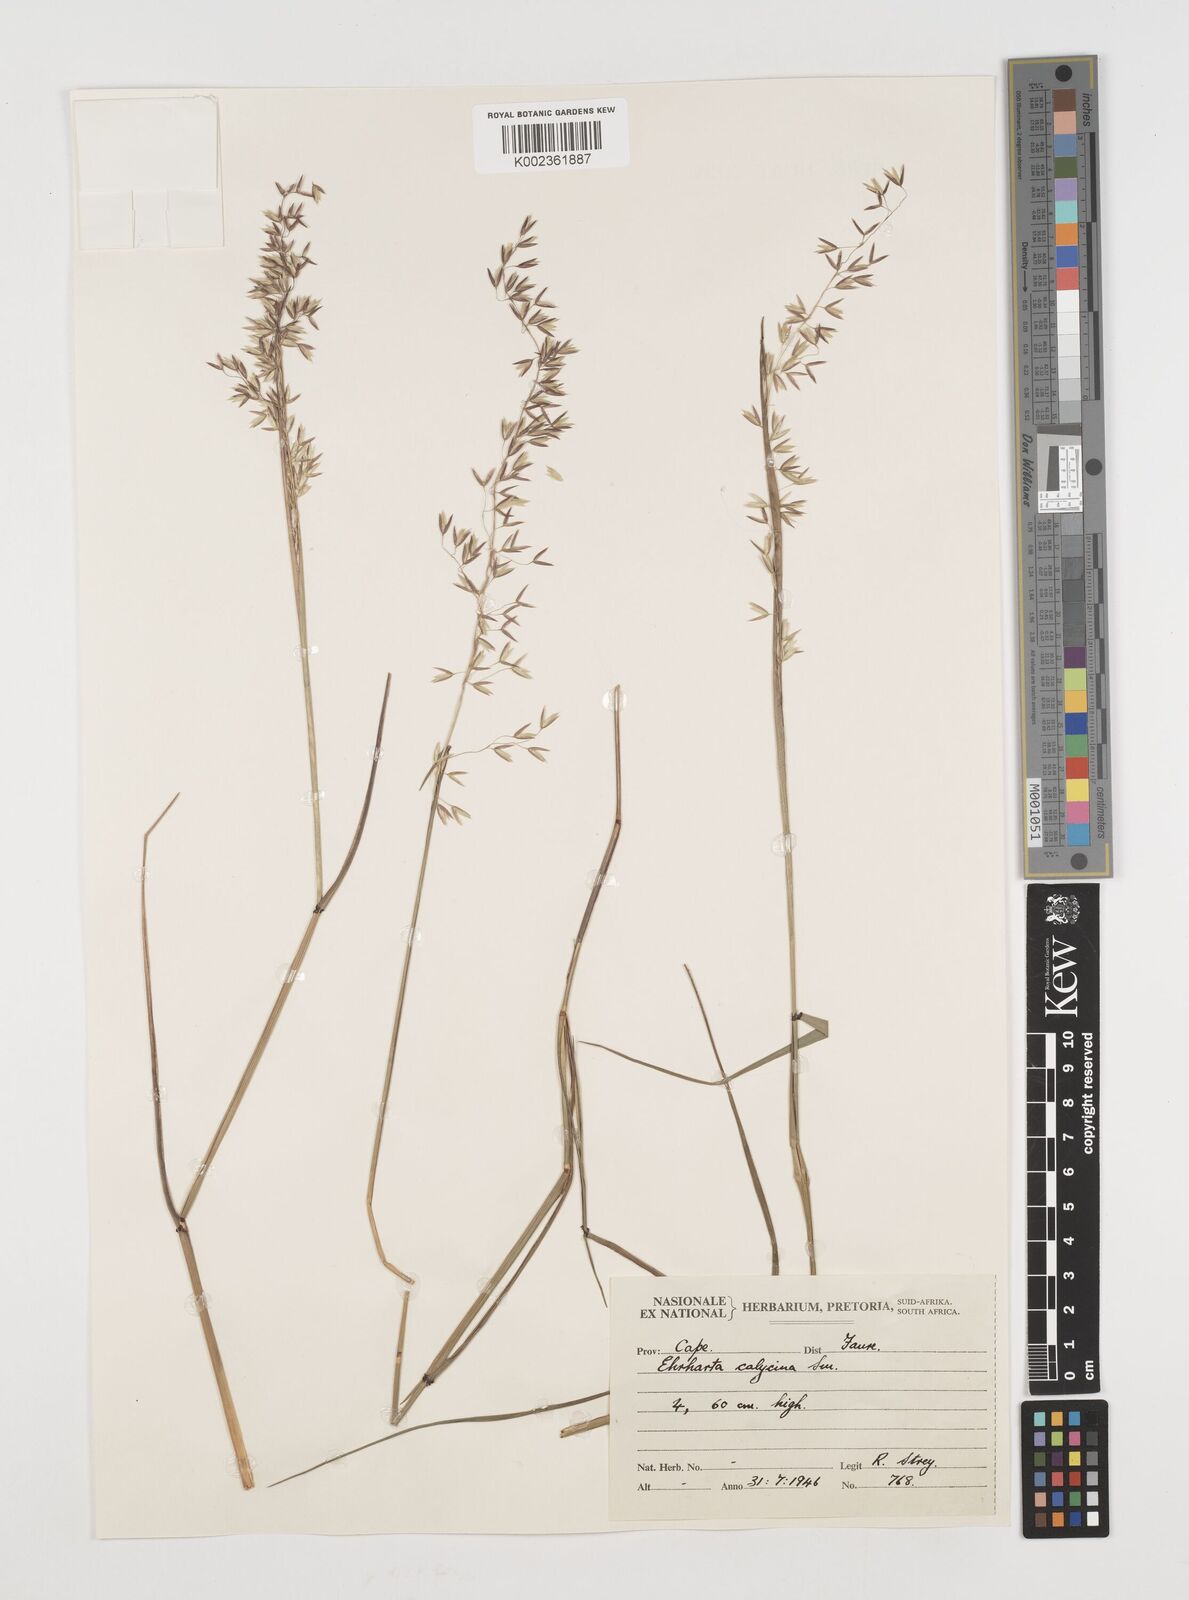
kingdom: Plantae
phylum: Tracheophyta
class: Liliopsida
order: Poales
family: Poaceae
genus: Ehrharta
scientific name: Ehrharta
